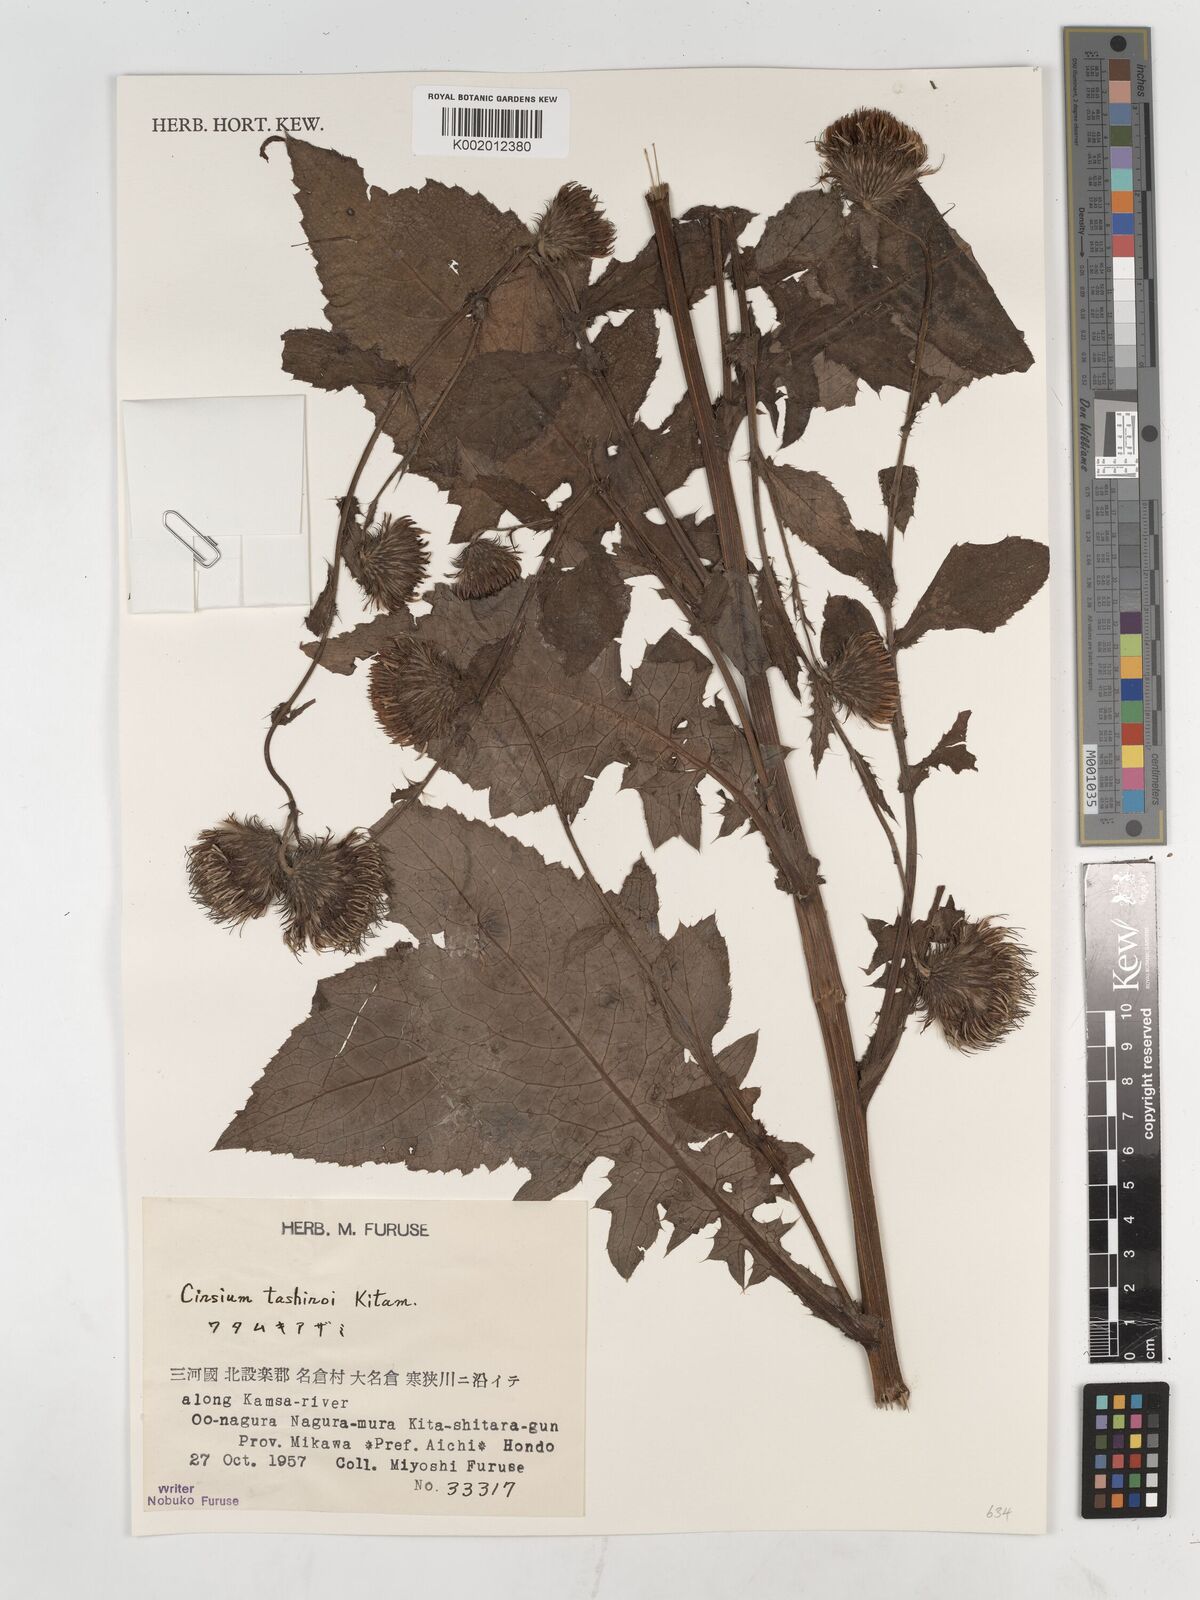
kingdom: Plantae
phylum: Tracheophyta
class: Magnoliopsida
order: Asterales
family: Asteraceae
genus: Cirsium
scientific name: Cirsium tashiroi
